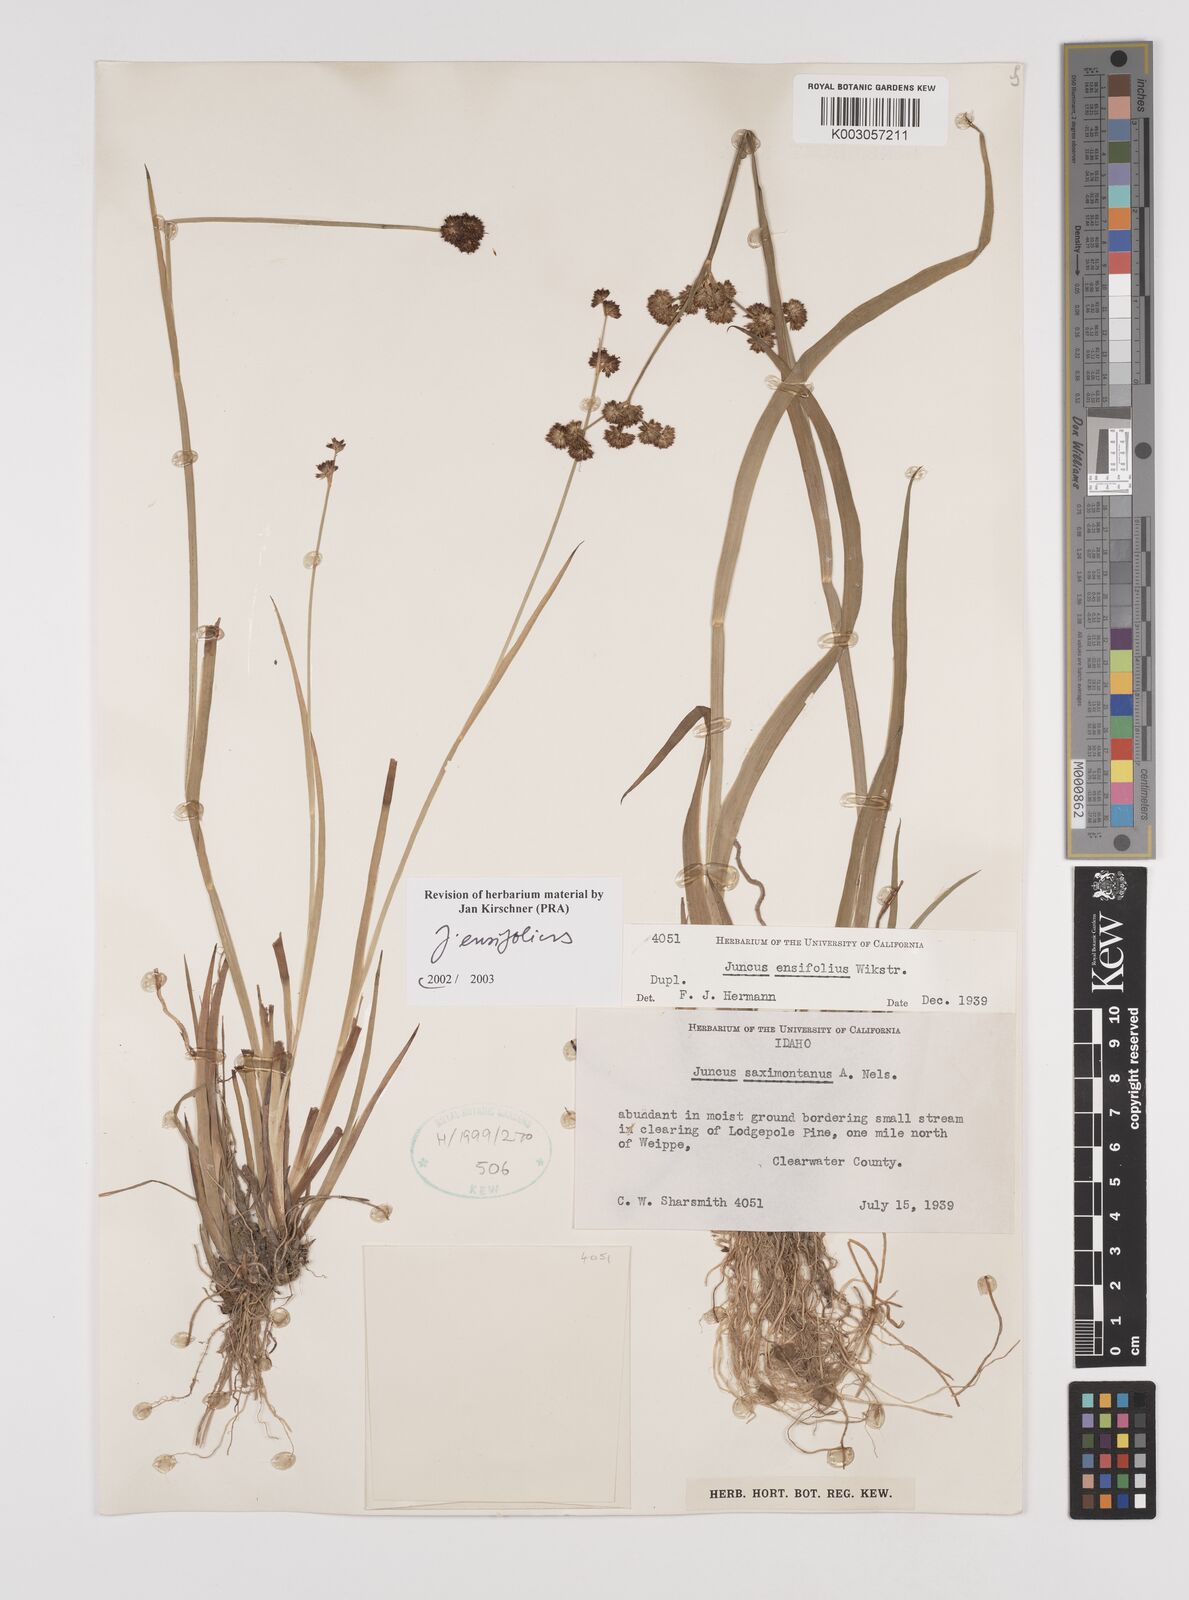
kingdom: Plantae
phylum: Tracheophyta
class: Liliopsida
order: Poales
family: Juncaceae
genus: Juncus
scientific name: Juncus ensifolius
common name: Sword-leaved rush
